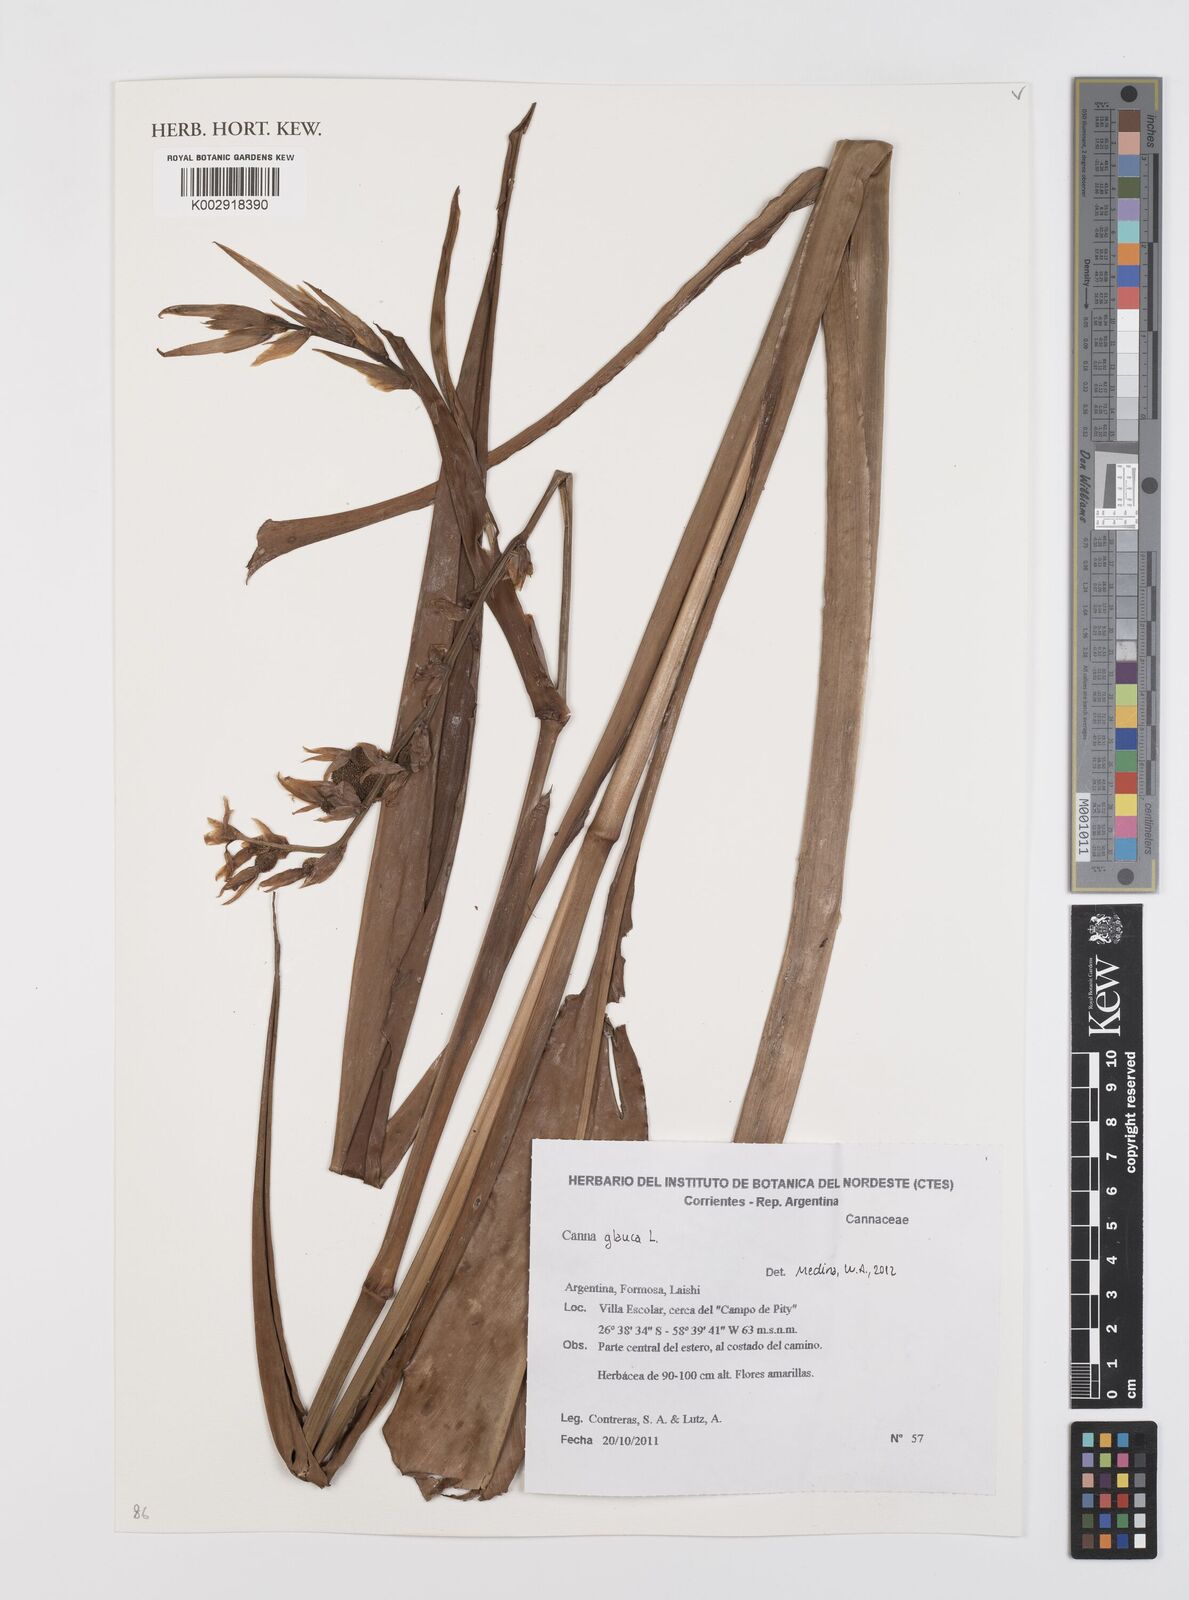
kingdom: Plantae
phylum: Tracheophyta
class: Liliopsida
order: Zingiberales
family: Cannaceae
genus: Canna
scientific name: Canna glauca
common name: Louisiana canna
